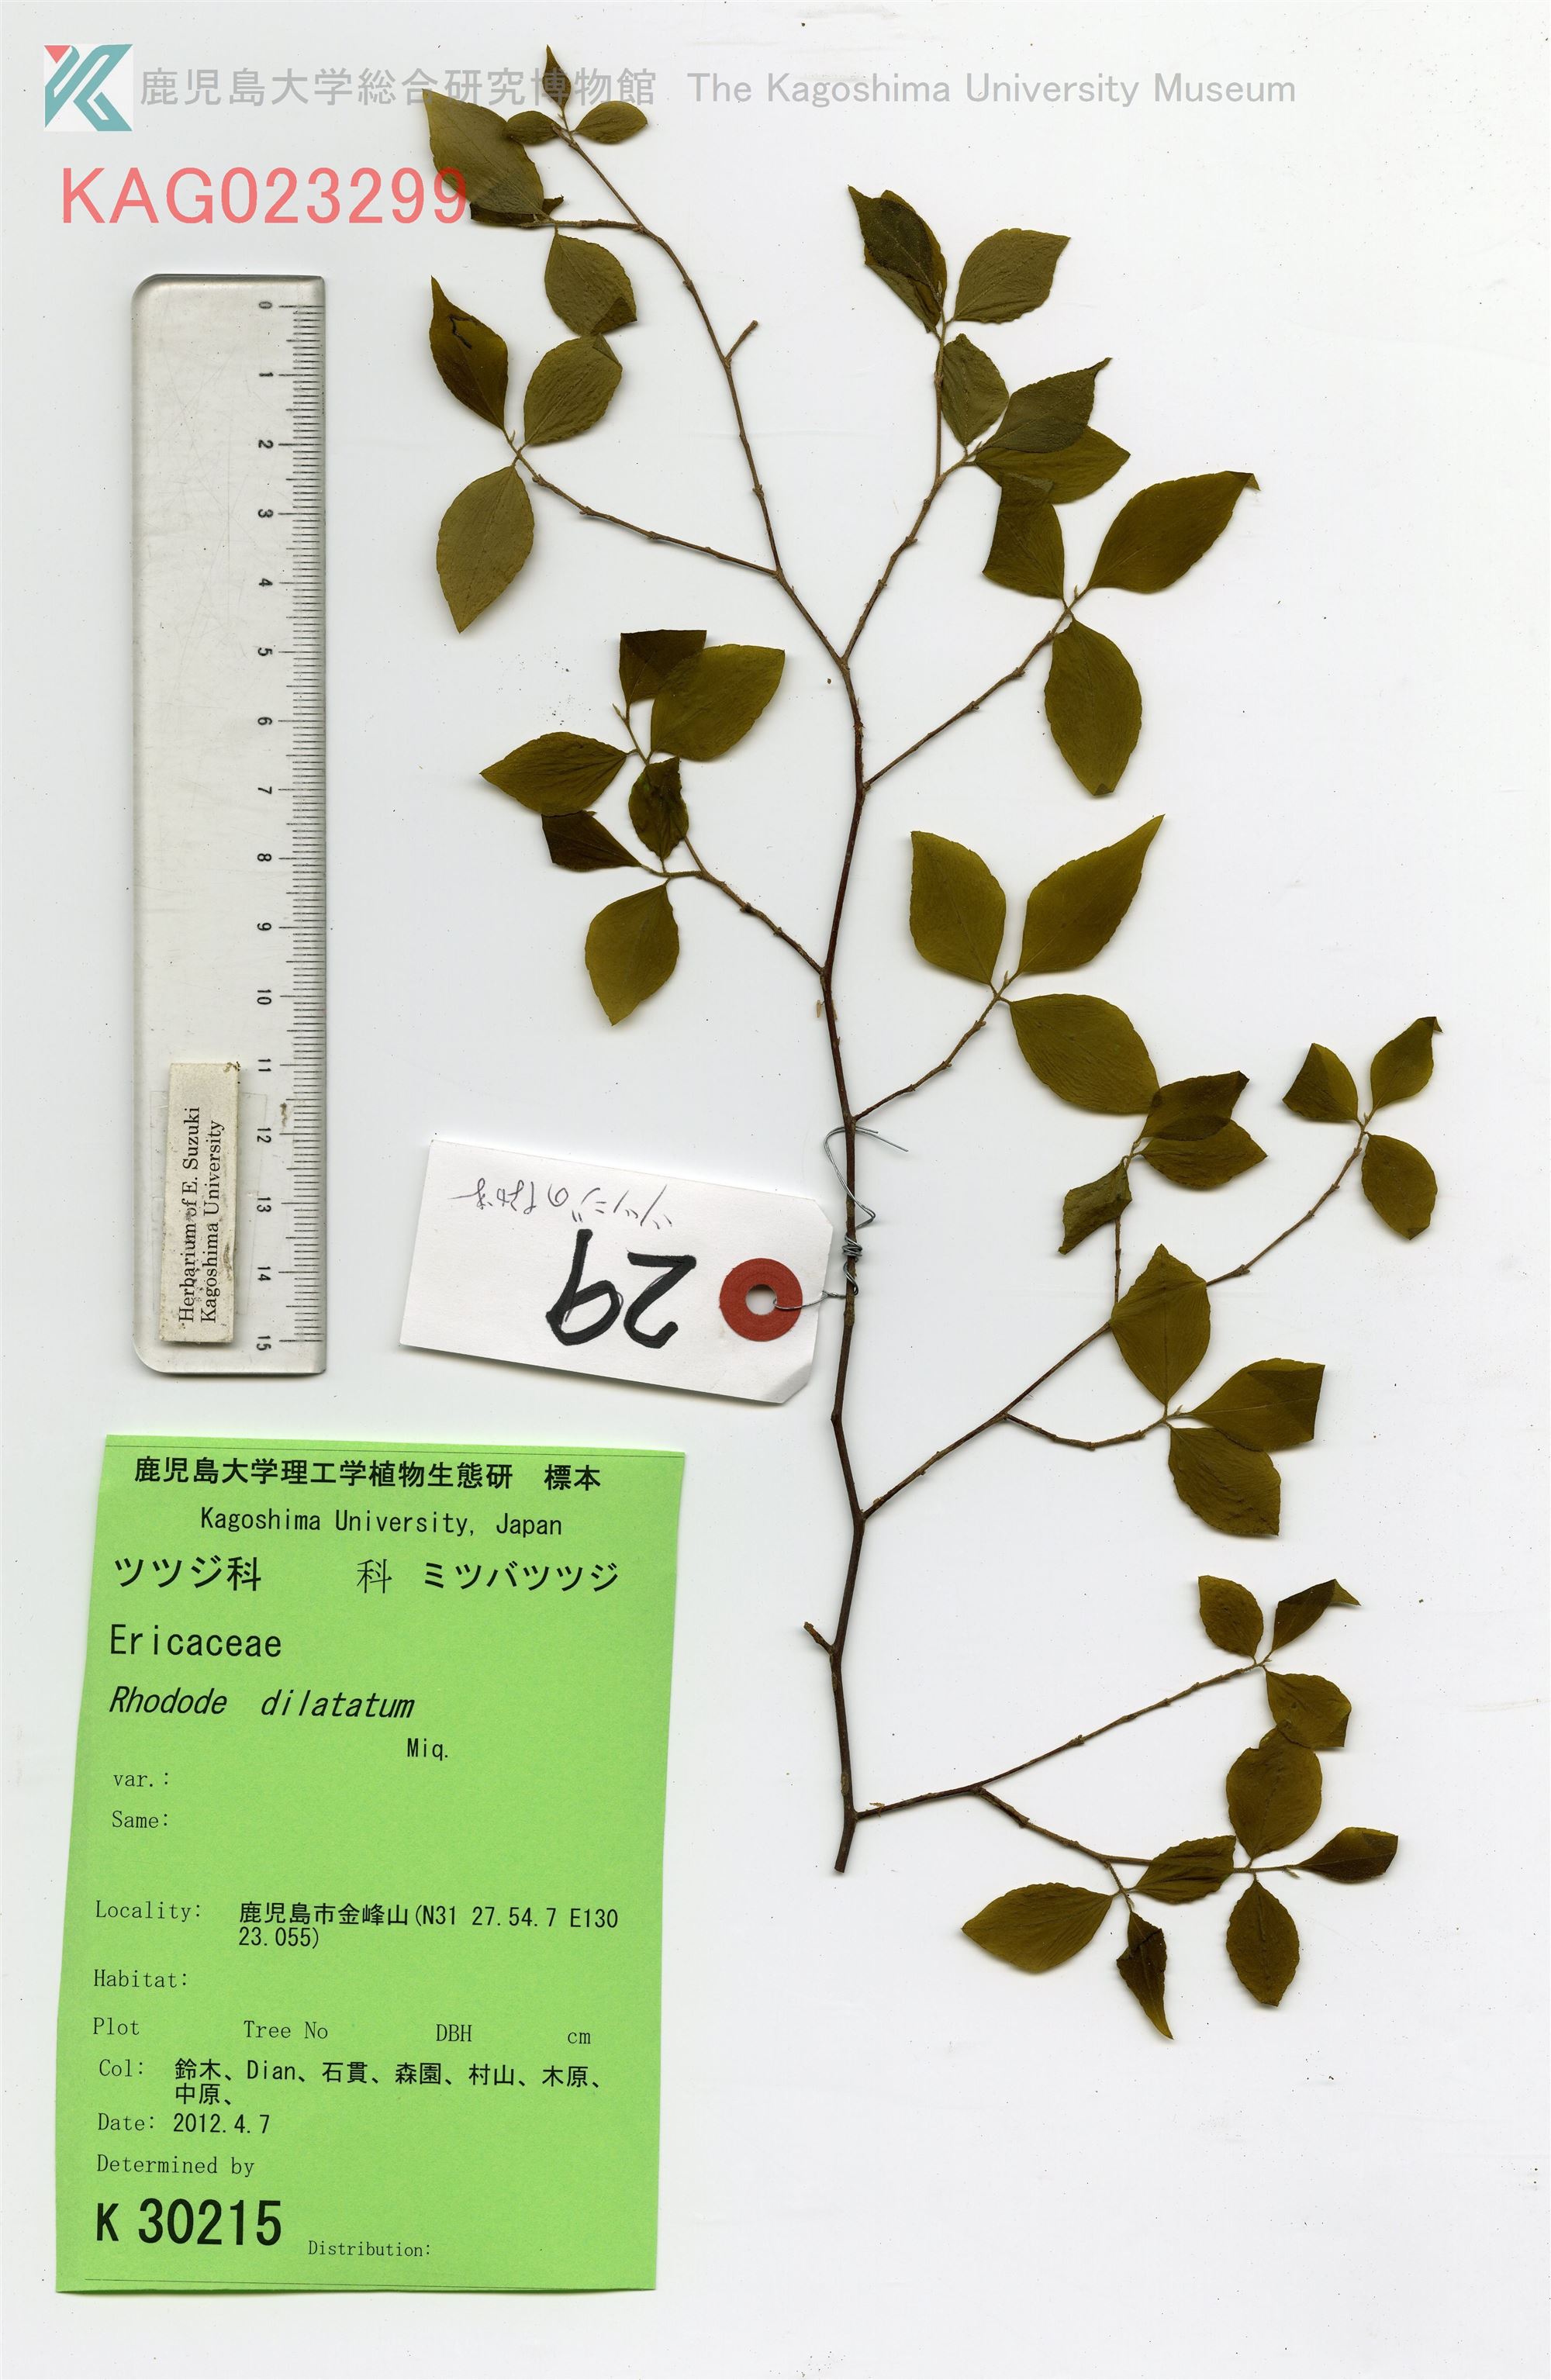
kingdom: Plantae
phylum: Tracheophyta
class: Magnoliopsida
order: Ericales
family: Styracaceae
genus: Styrax
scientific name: Styrax japonicus
